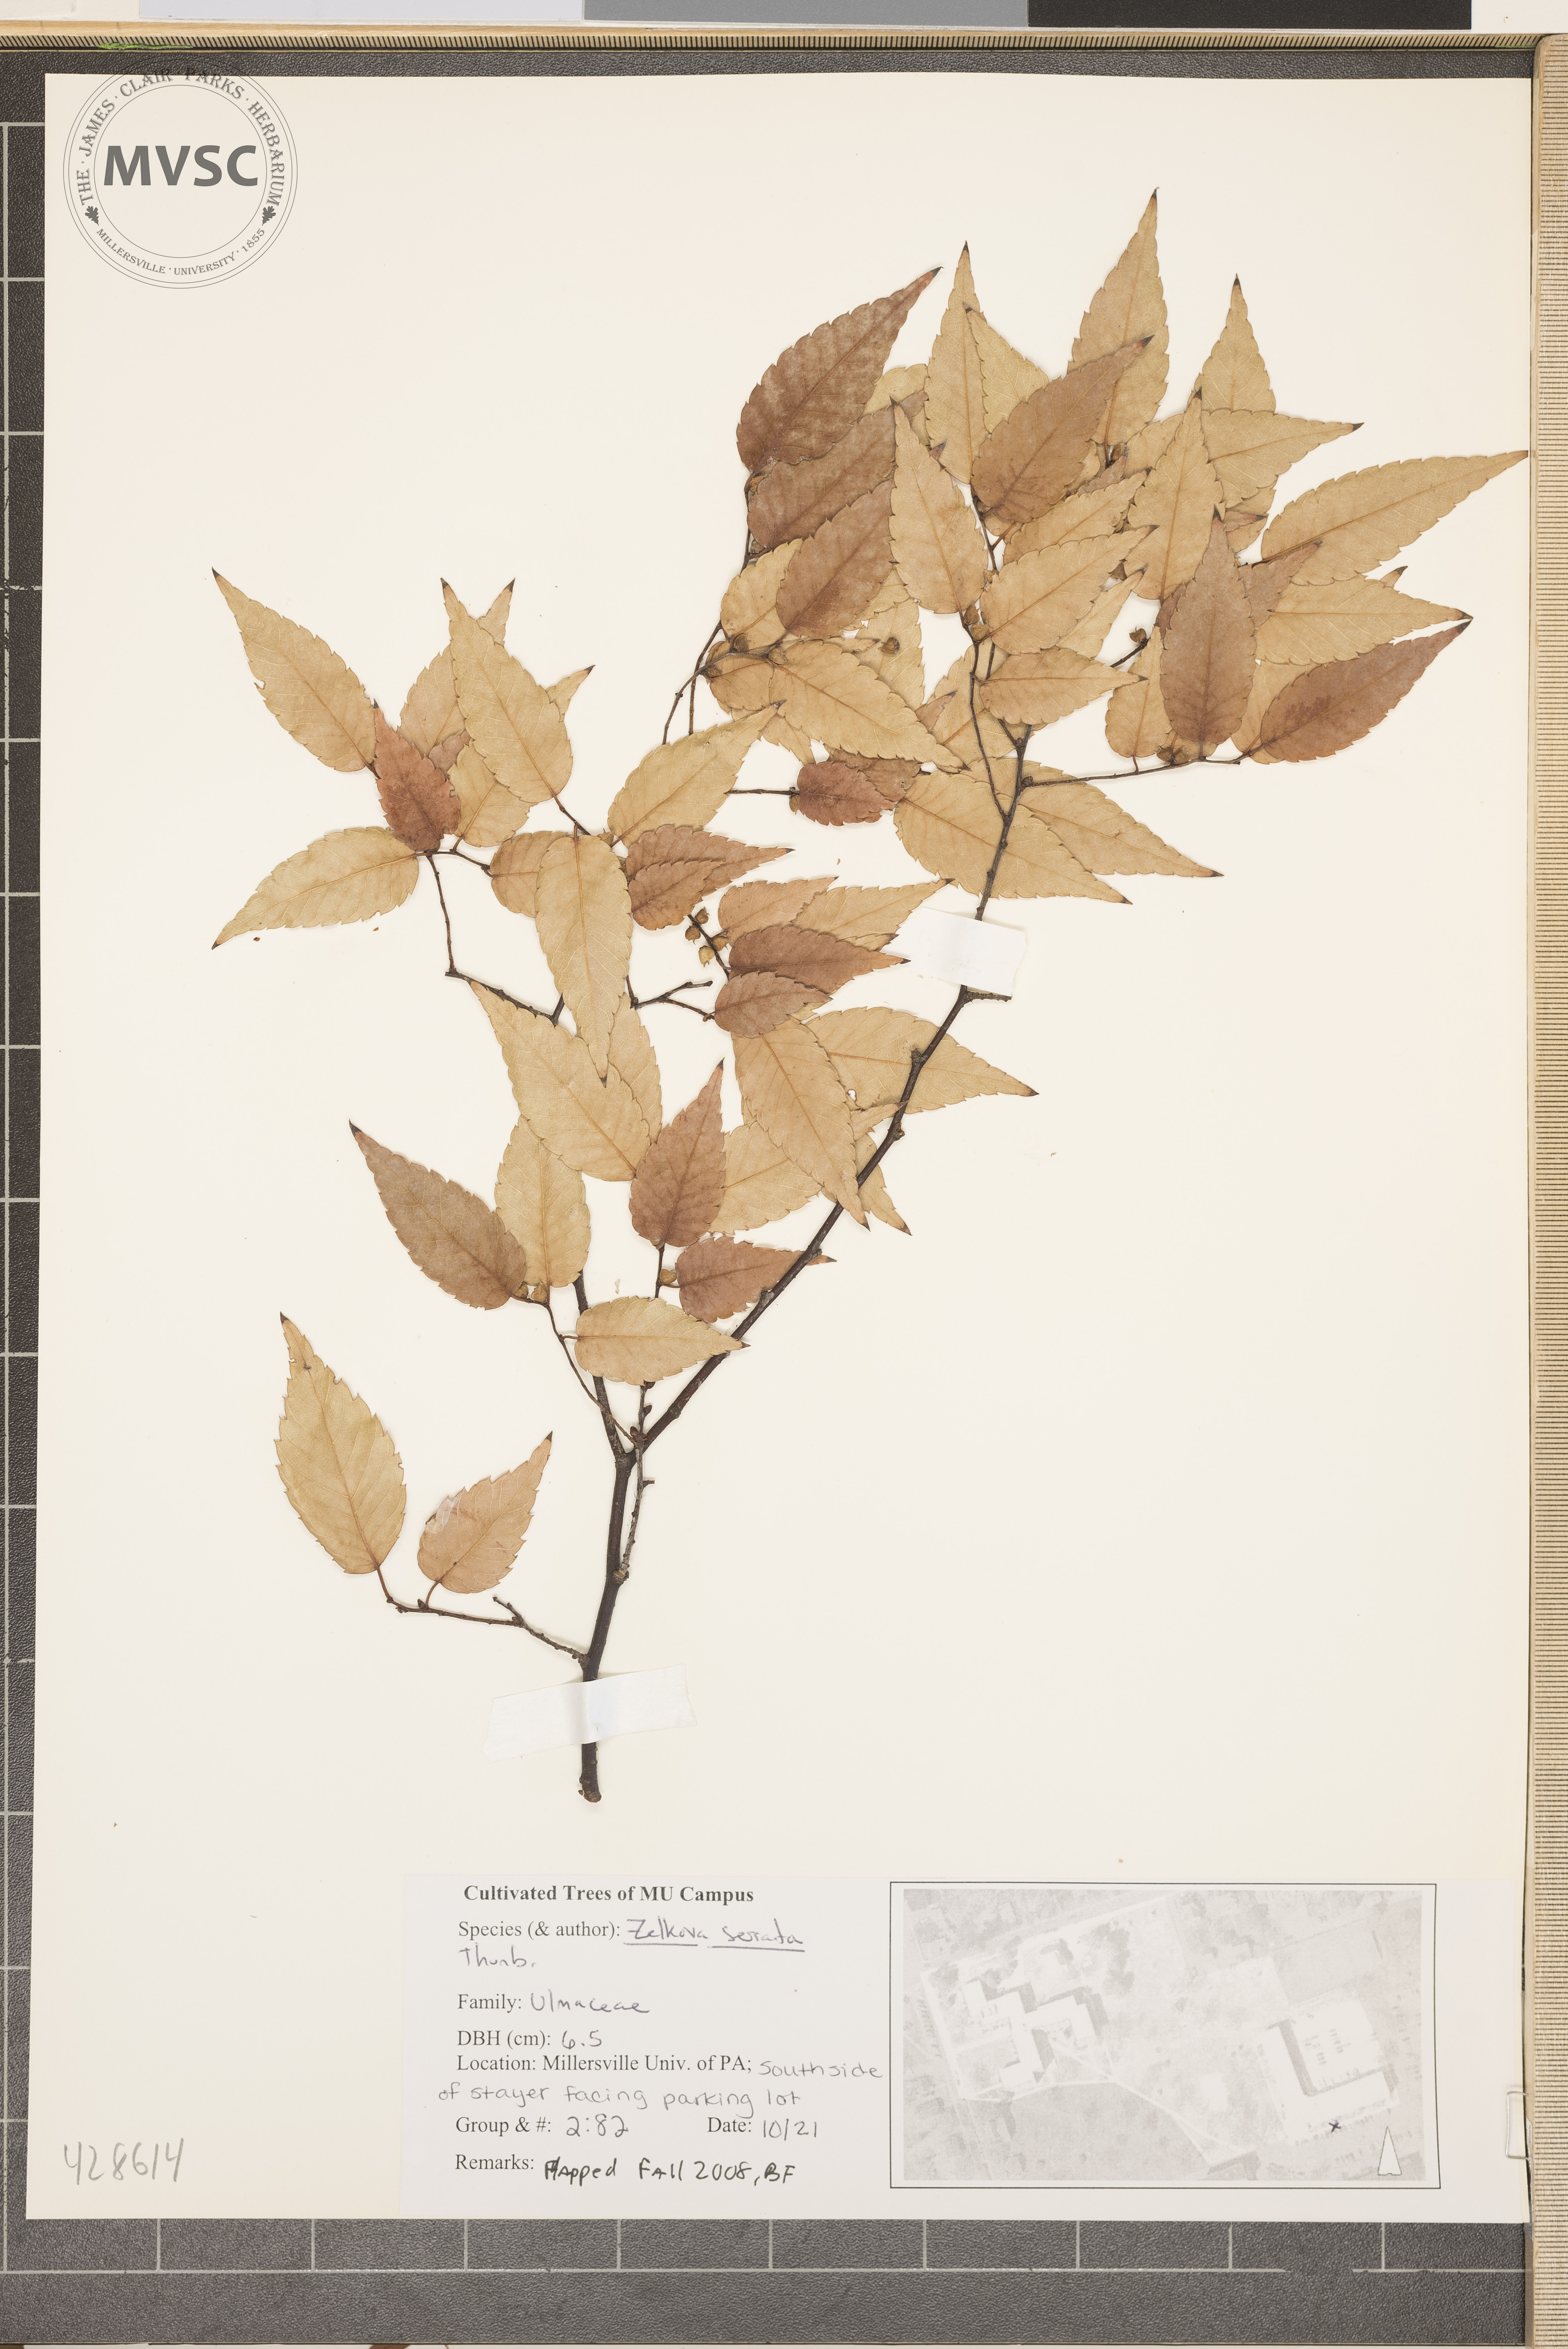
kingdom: Plantae
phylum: Tracheophyta
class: Magnoliopsida
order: Rosales
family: Ulmaceae
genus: Zelkova
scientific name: Zelkova serrata
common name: Japanese Zelkova
